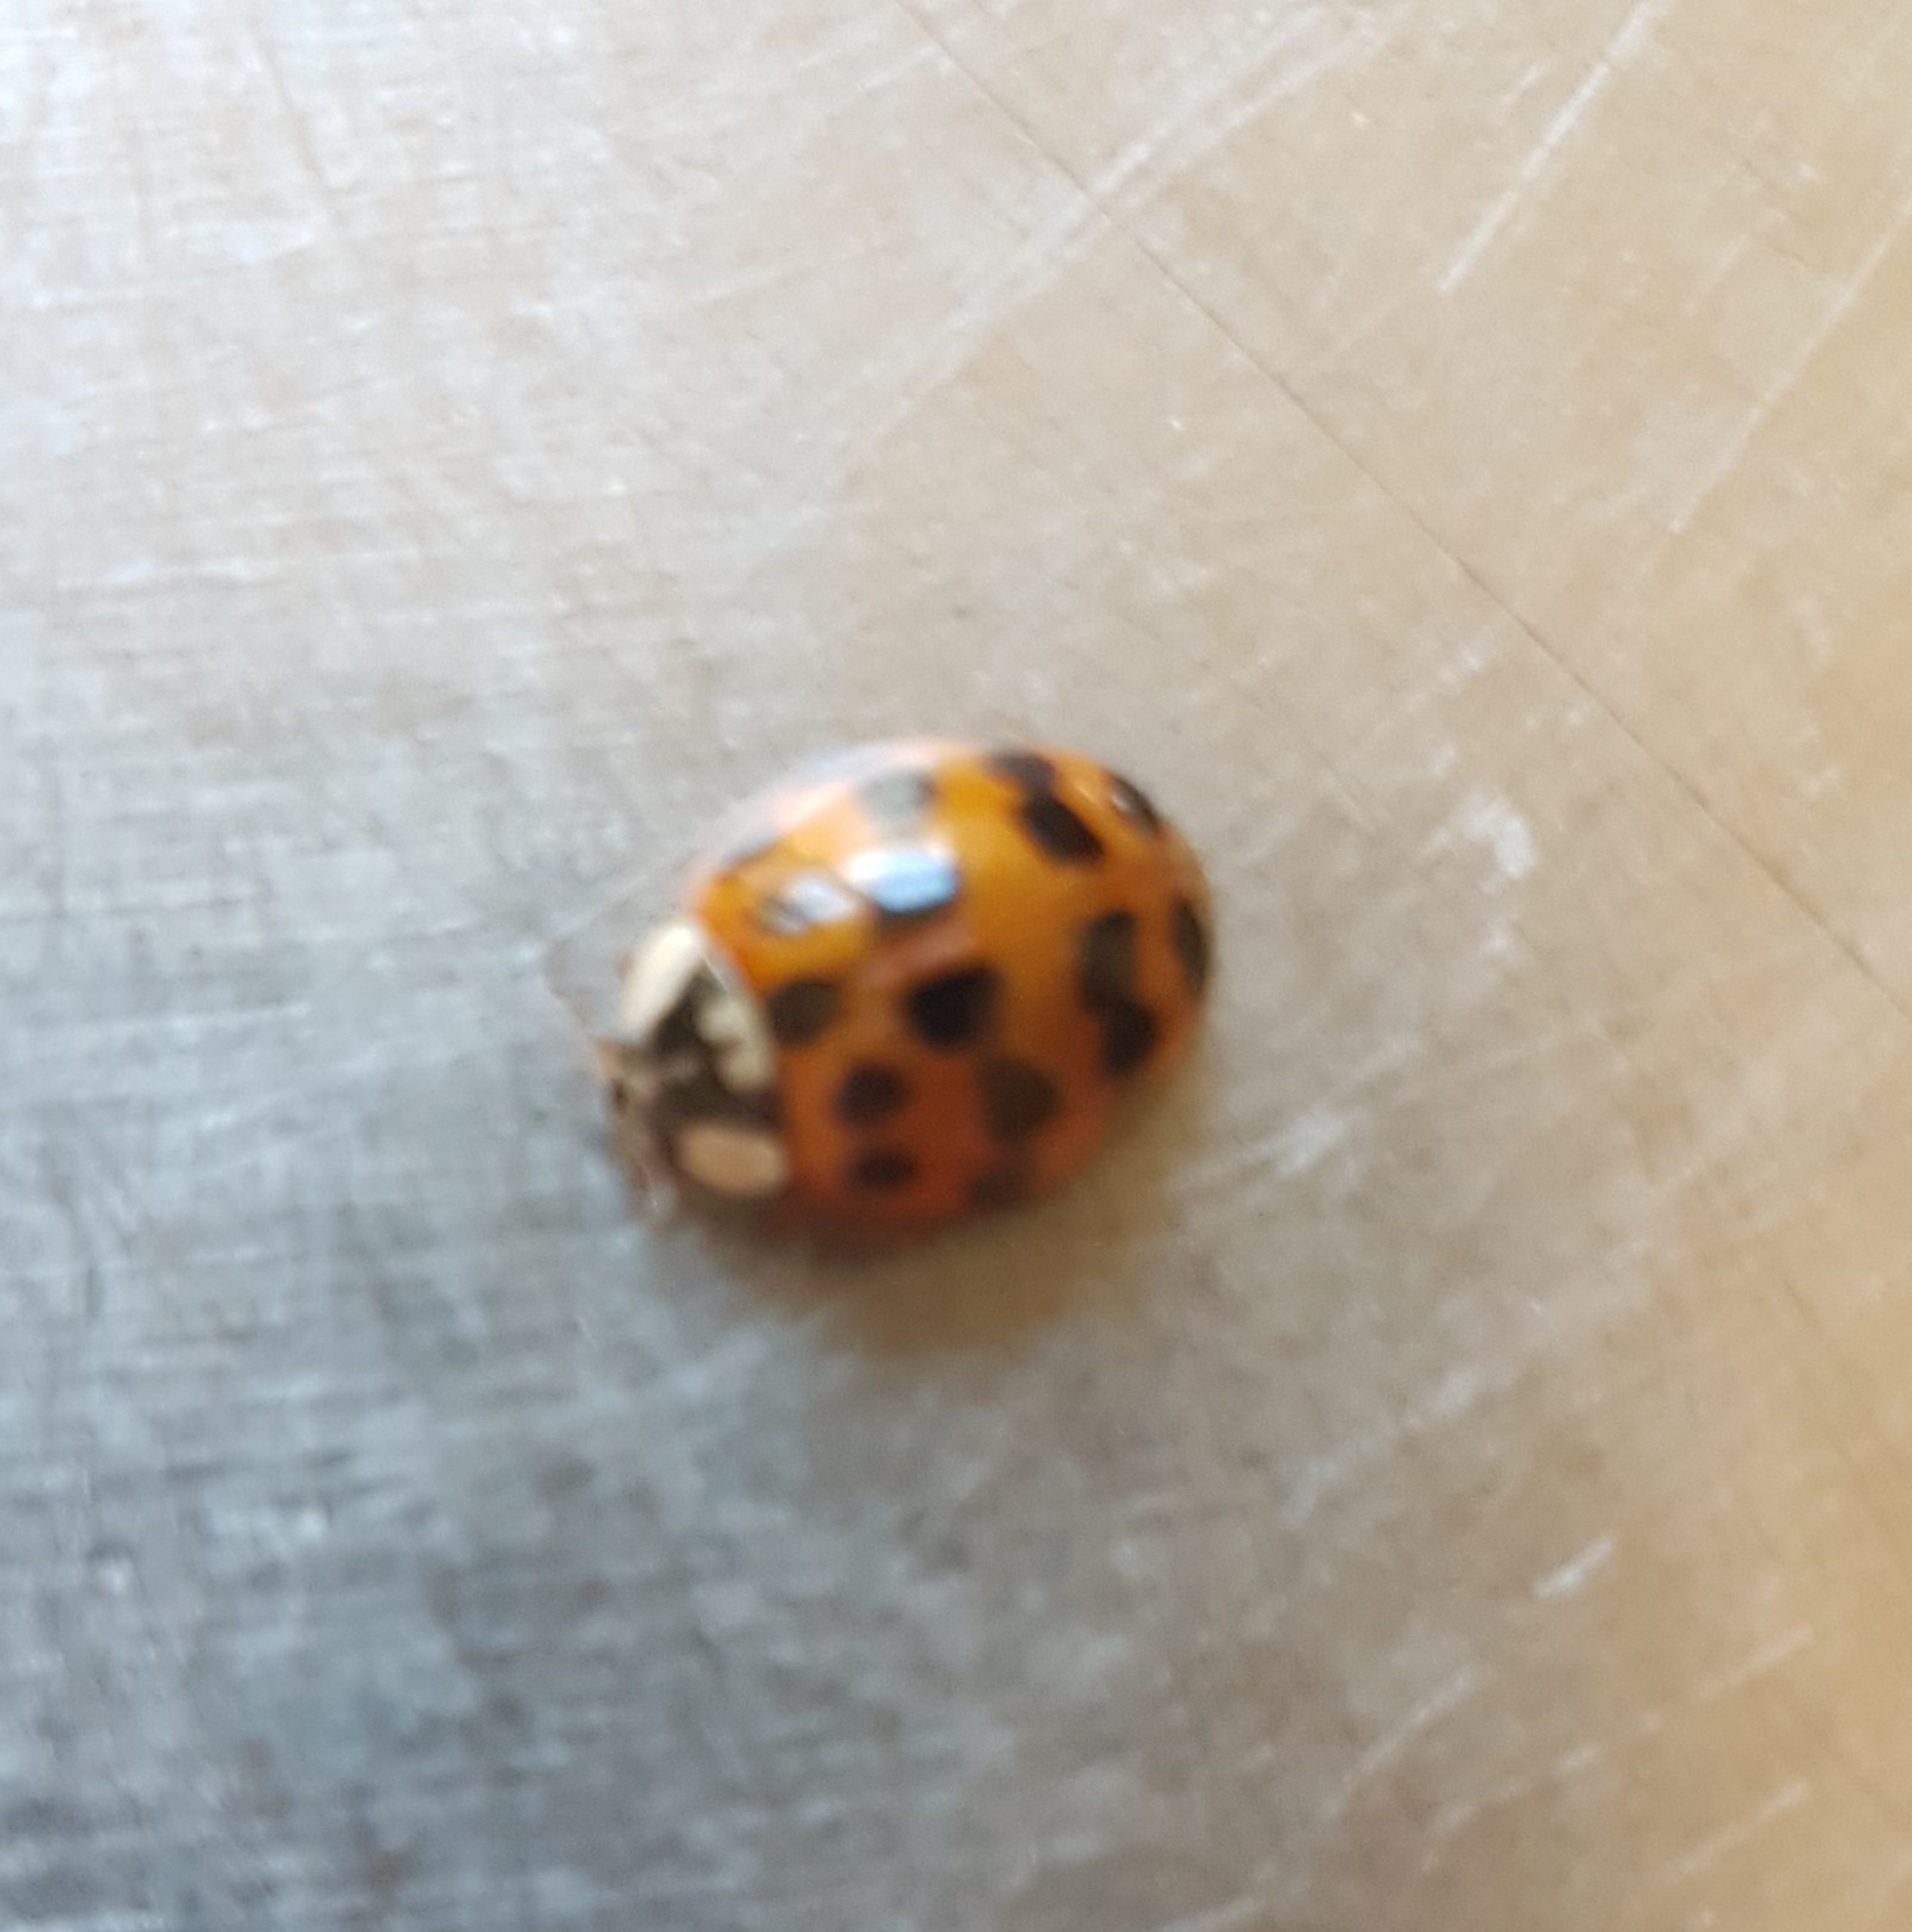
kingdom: Animalia
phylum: Arthropoda
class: Insecta
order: Coleoptera
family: Coccinellidae
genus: Harmonia
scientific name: Harmonia axyridis
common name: Harlekinmariehøne
